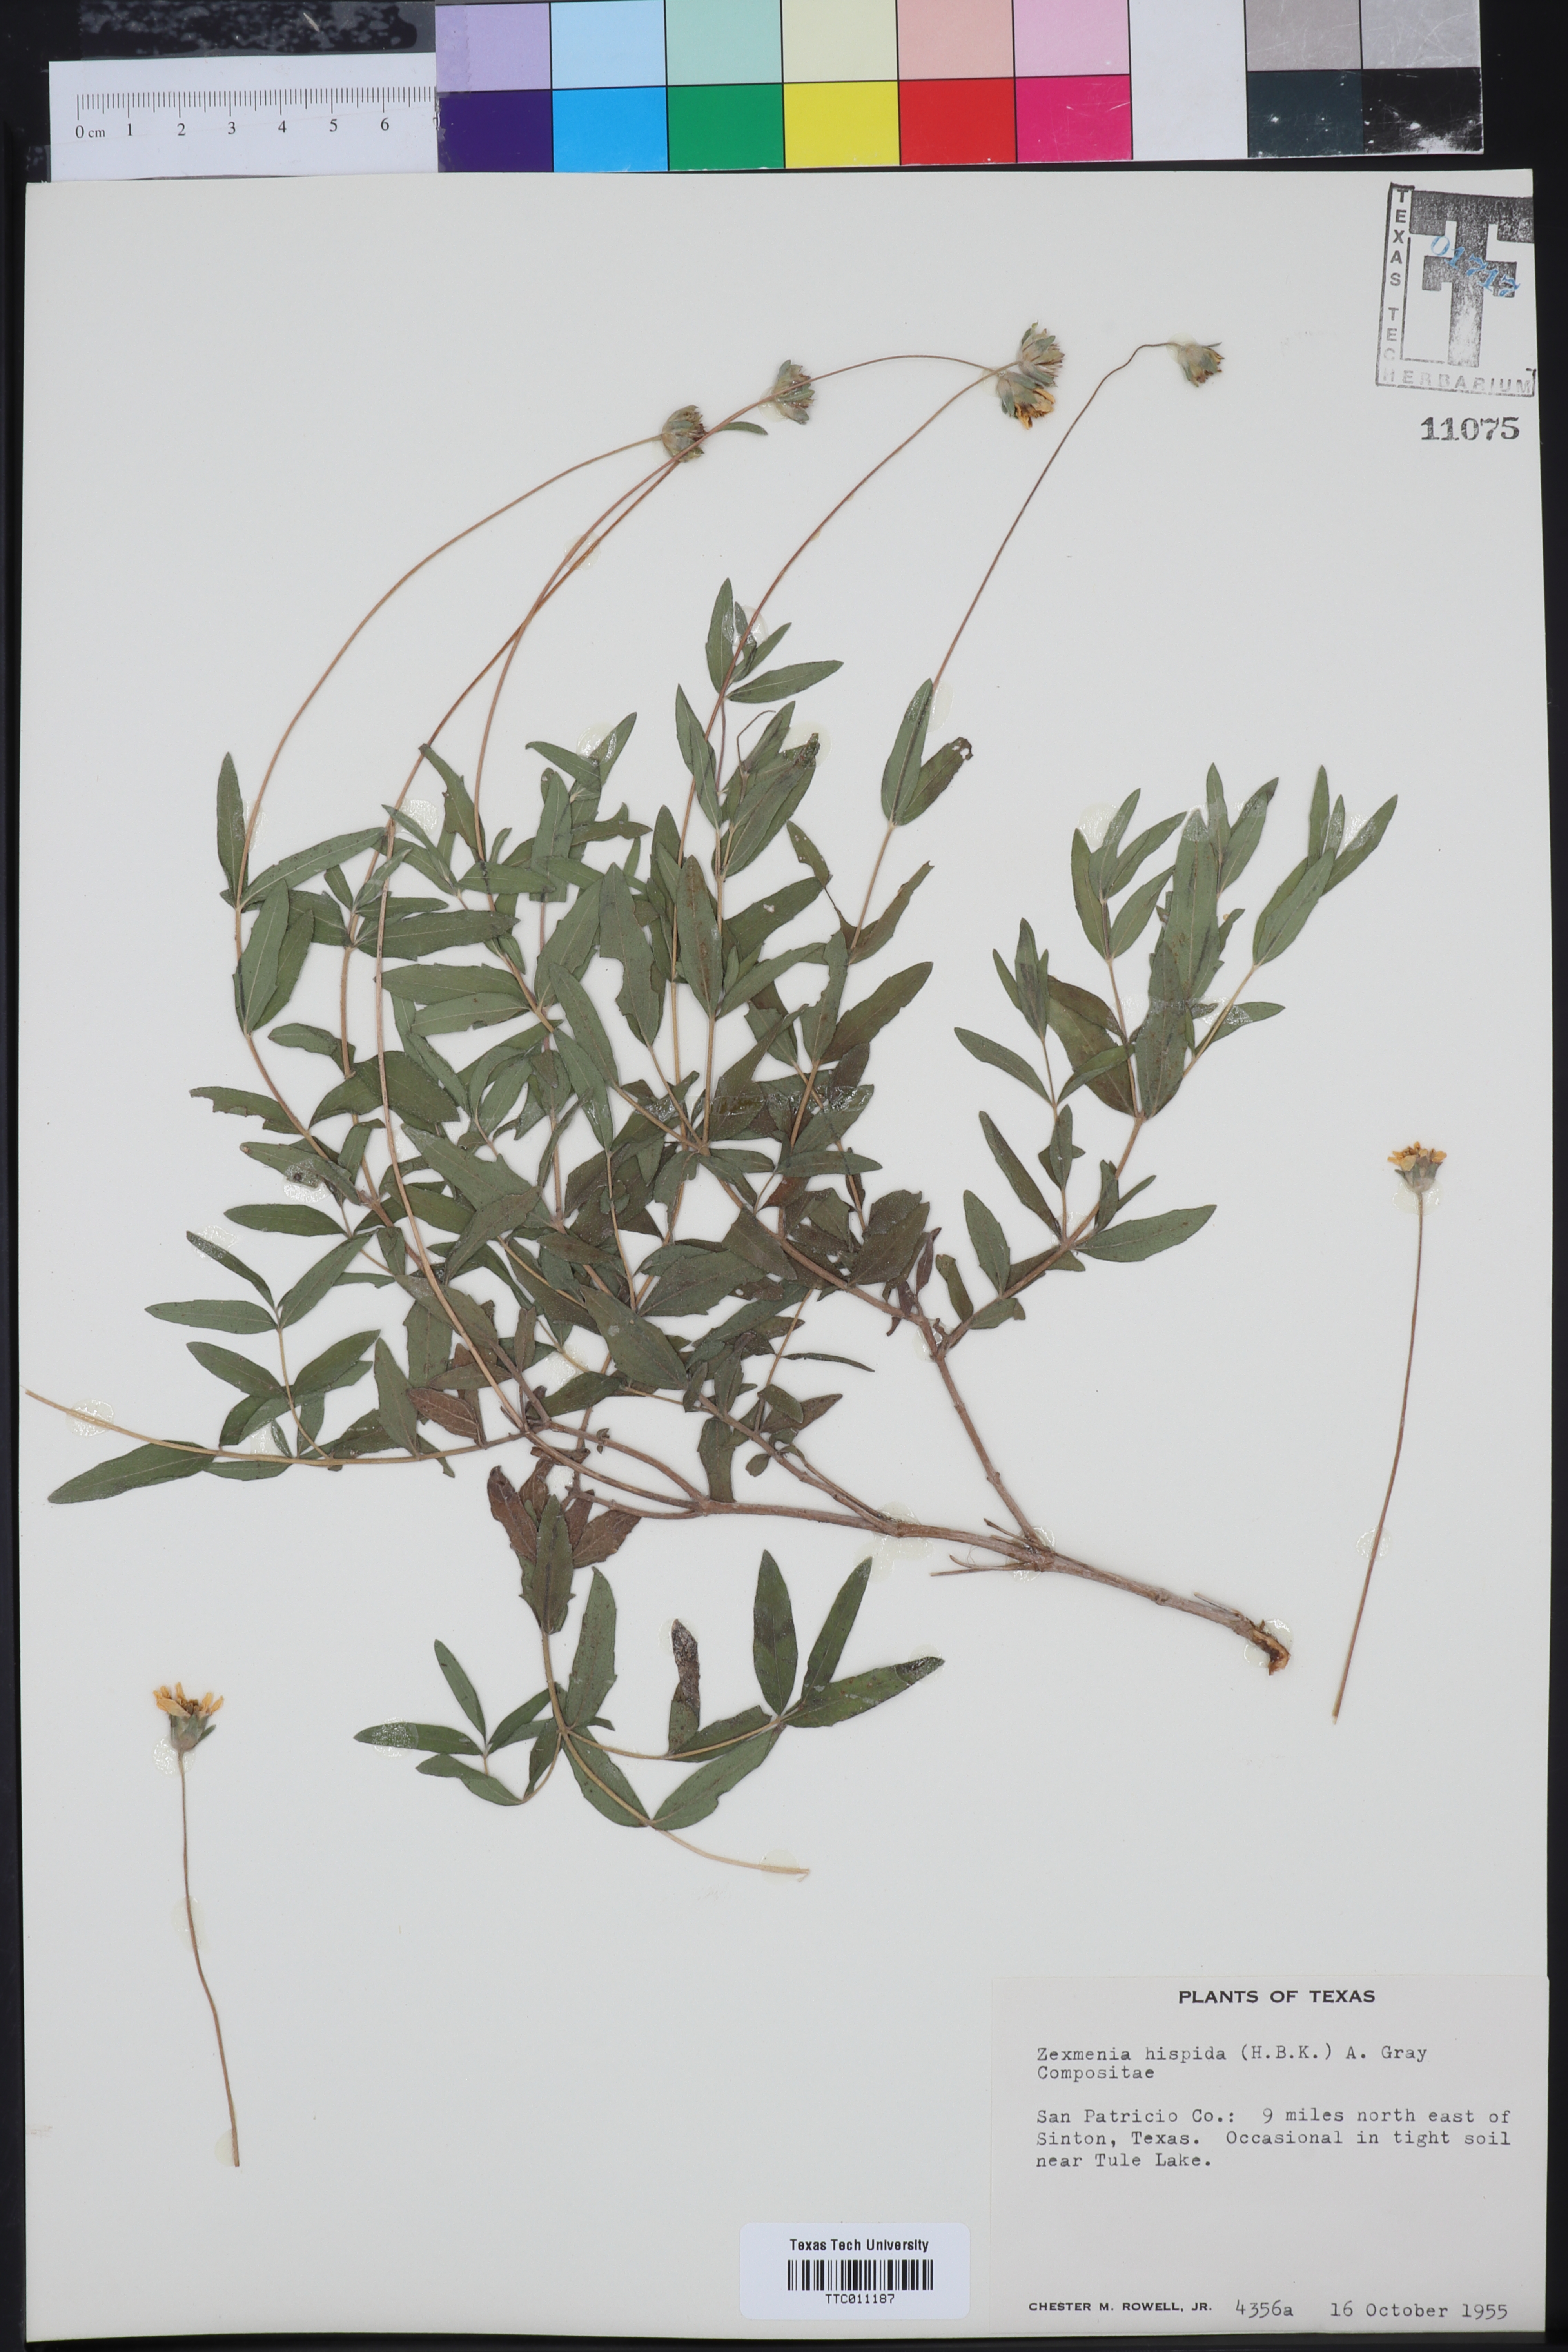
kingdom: Plantae
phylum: Tracheophyta
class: Magnoliopsida
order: Asterales
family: Asteraceae
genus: Wedelia
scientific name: Wedelia acapulcensis
